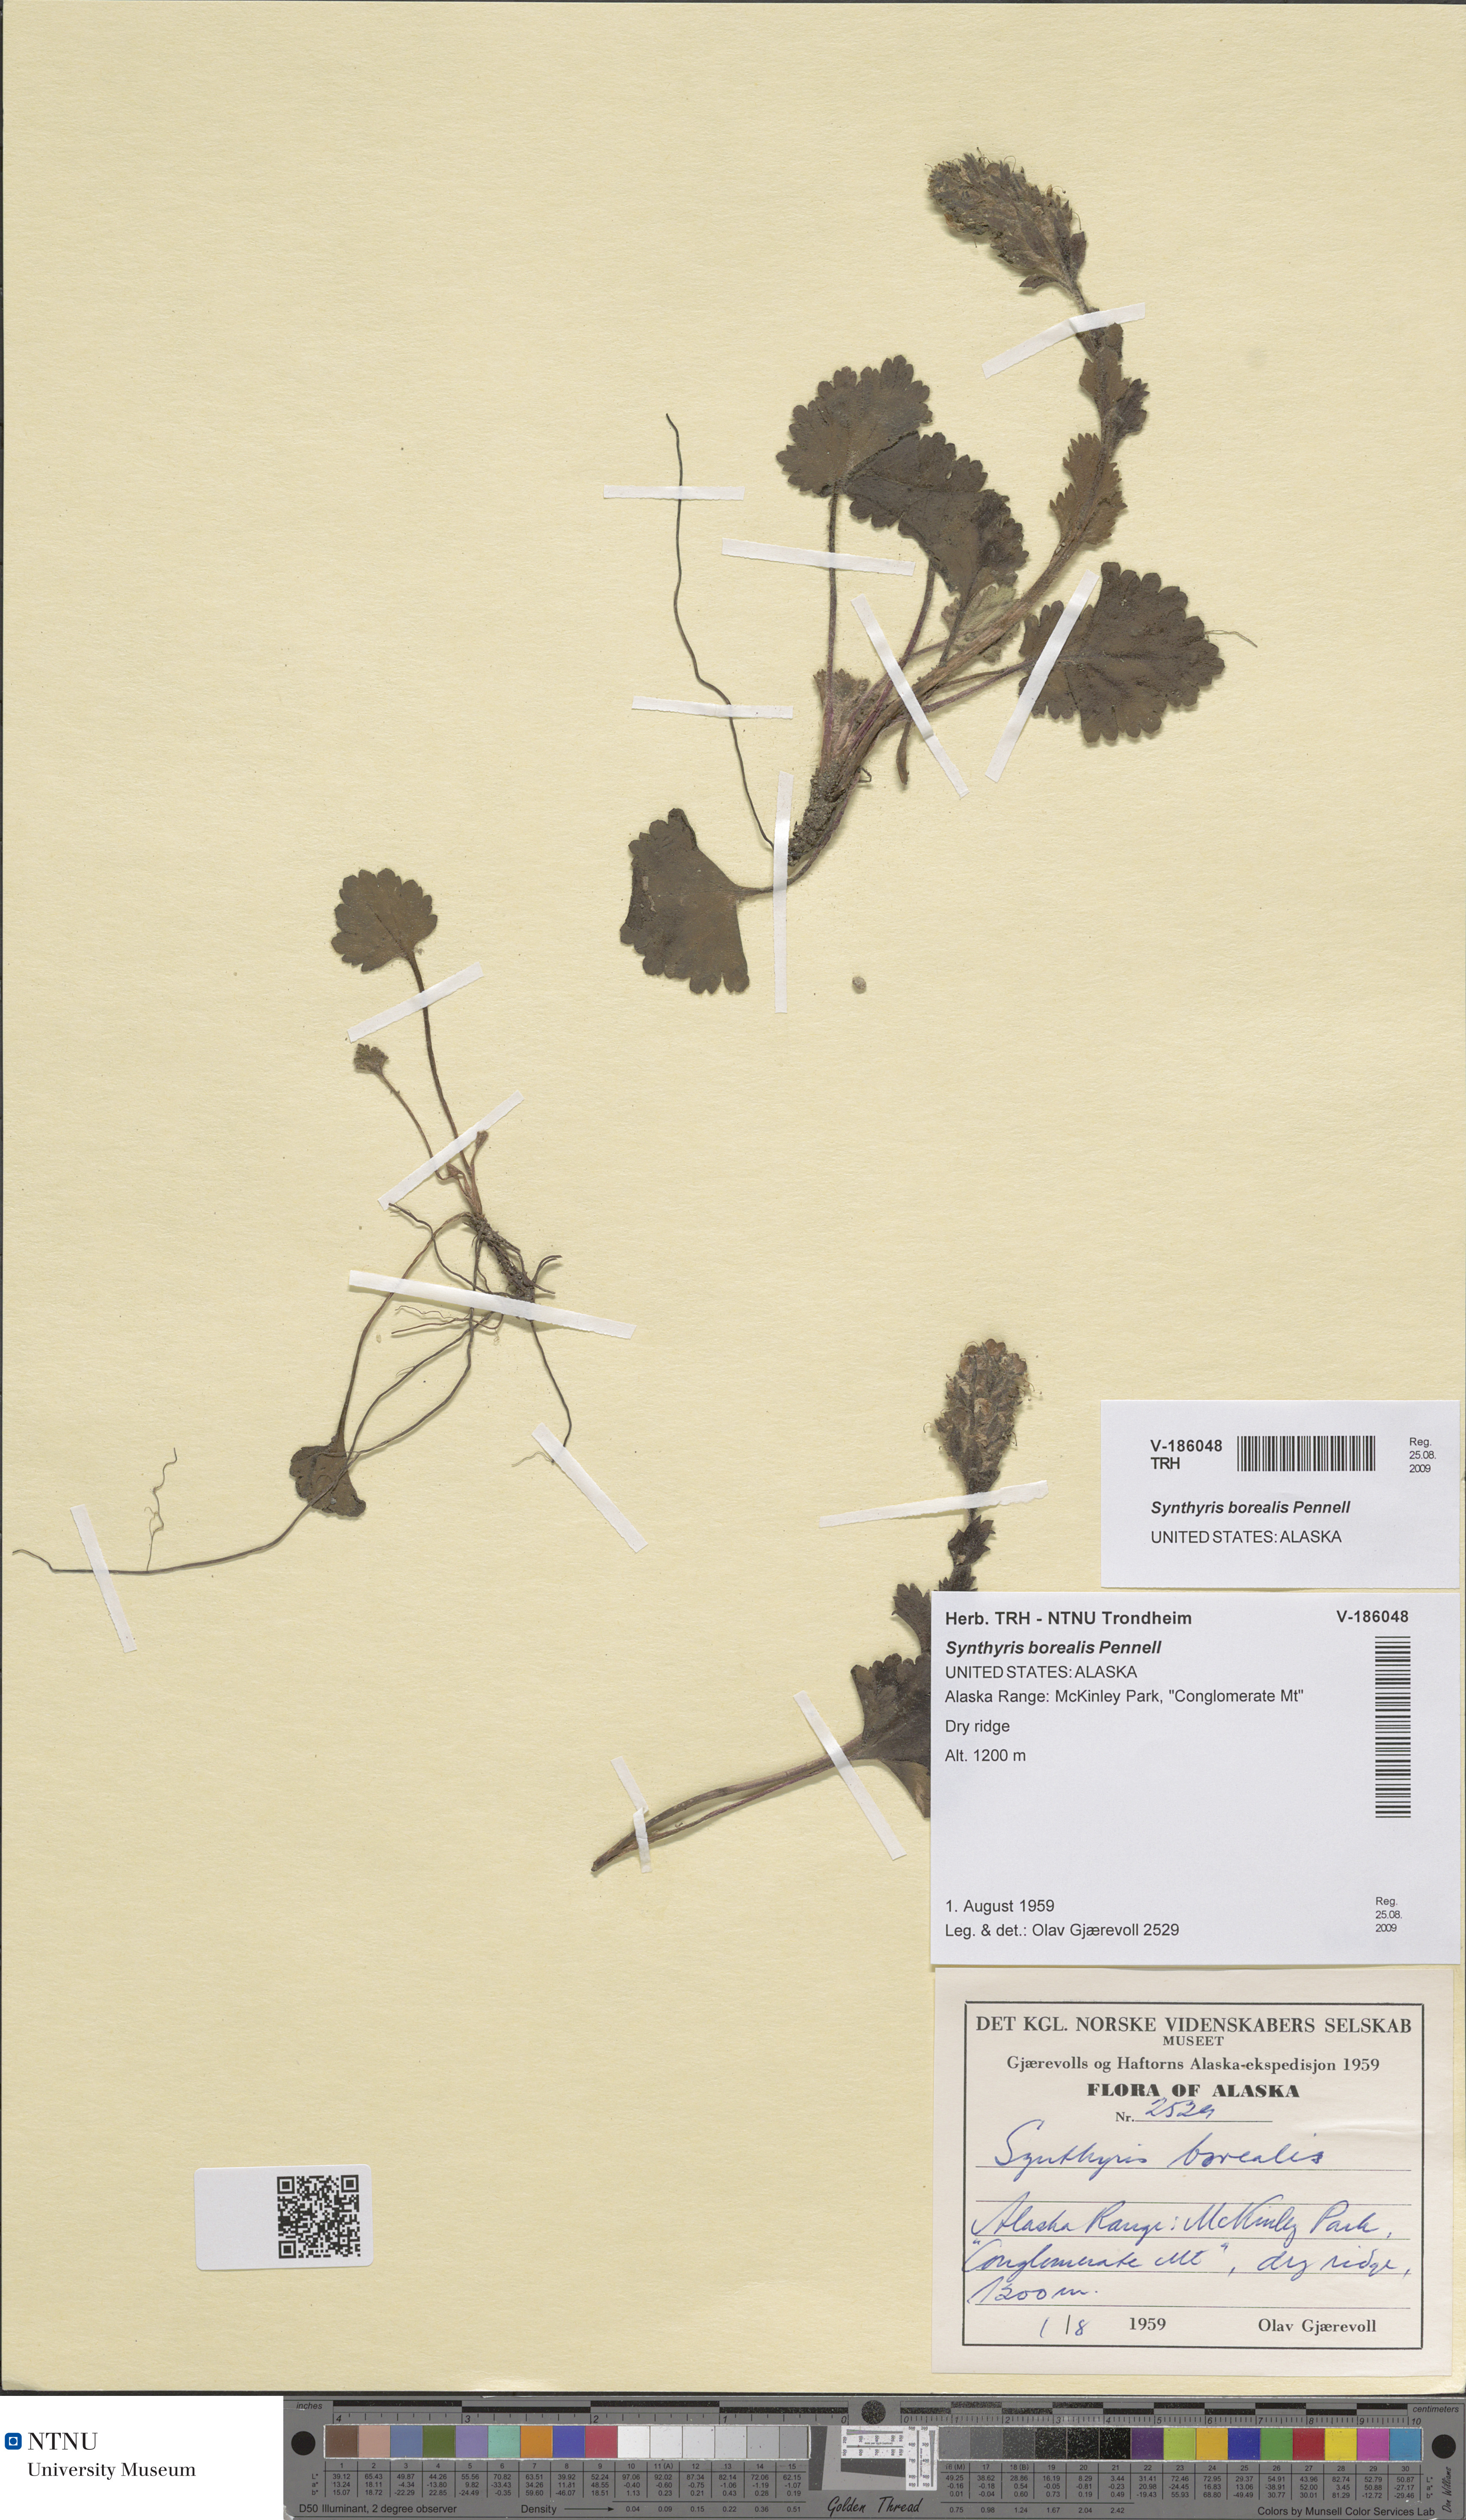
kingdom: Plantae
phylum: Tracheophyta
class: Magnoliopsida
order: Lamiales
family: Plantaginaceae
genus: Synthyris
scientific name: Synthyris borealis
